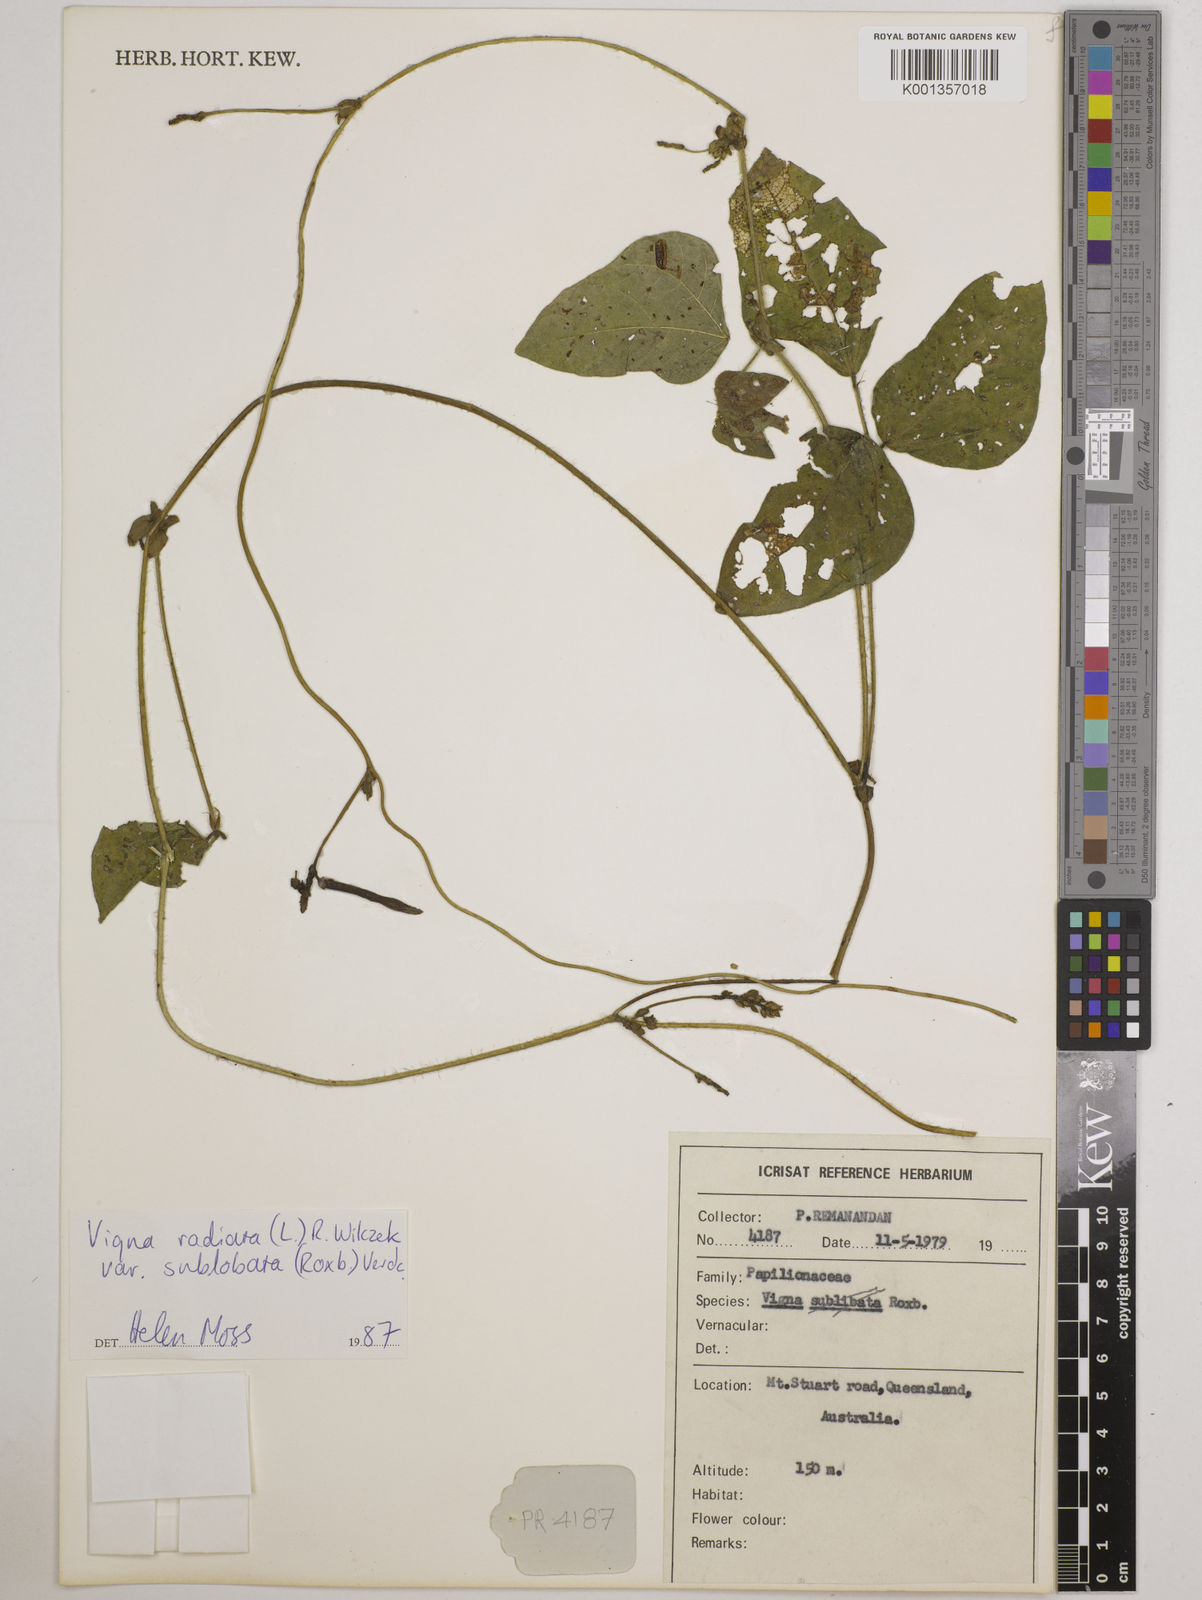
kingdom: Plantae
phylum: Tracheophyta
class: Magnoliopsida
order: Fabales
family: Fabaceae
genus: Vigna
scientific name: Vigna radiata
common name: Mung-bean
